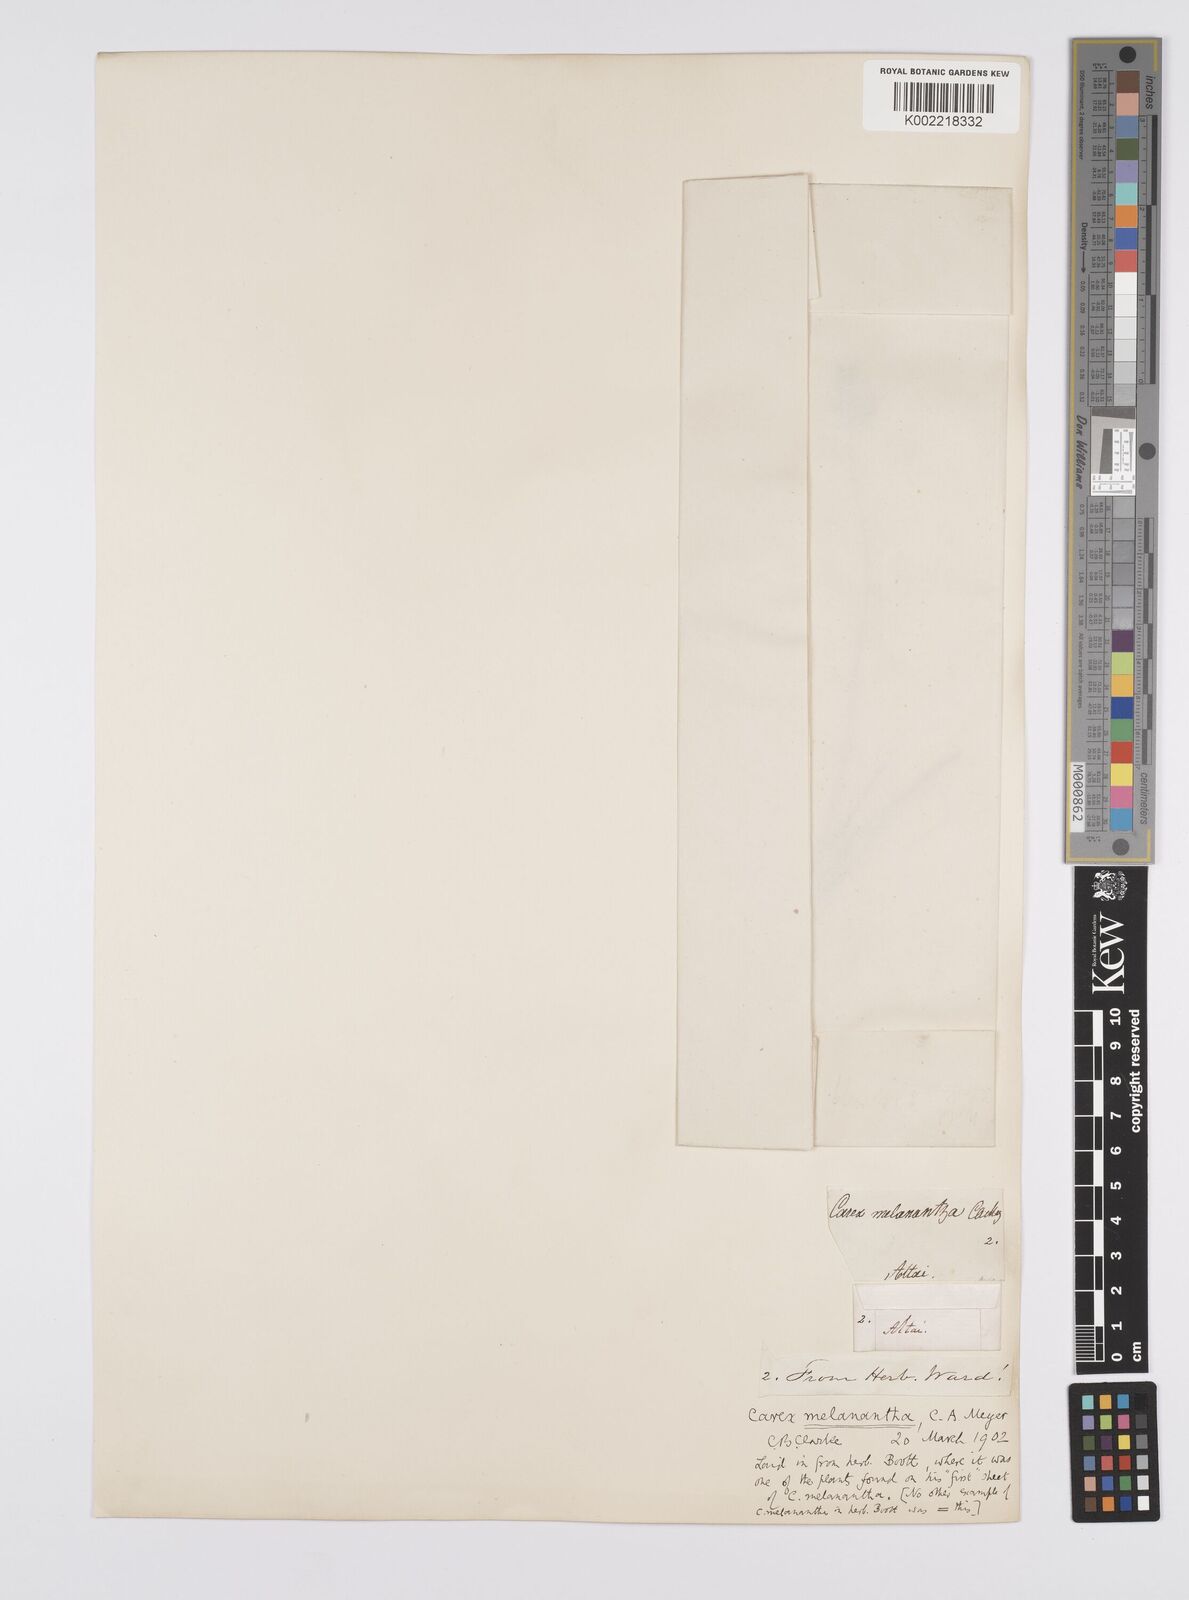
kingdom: Plantae
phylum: Tracheophyta
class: Liliopsida
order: Poales
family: Cyperaceae
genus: Carex
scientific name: Carex melanantha
